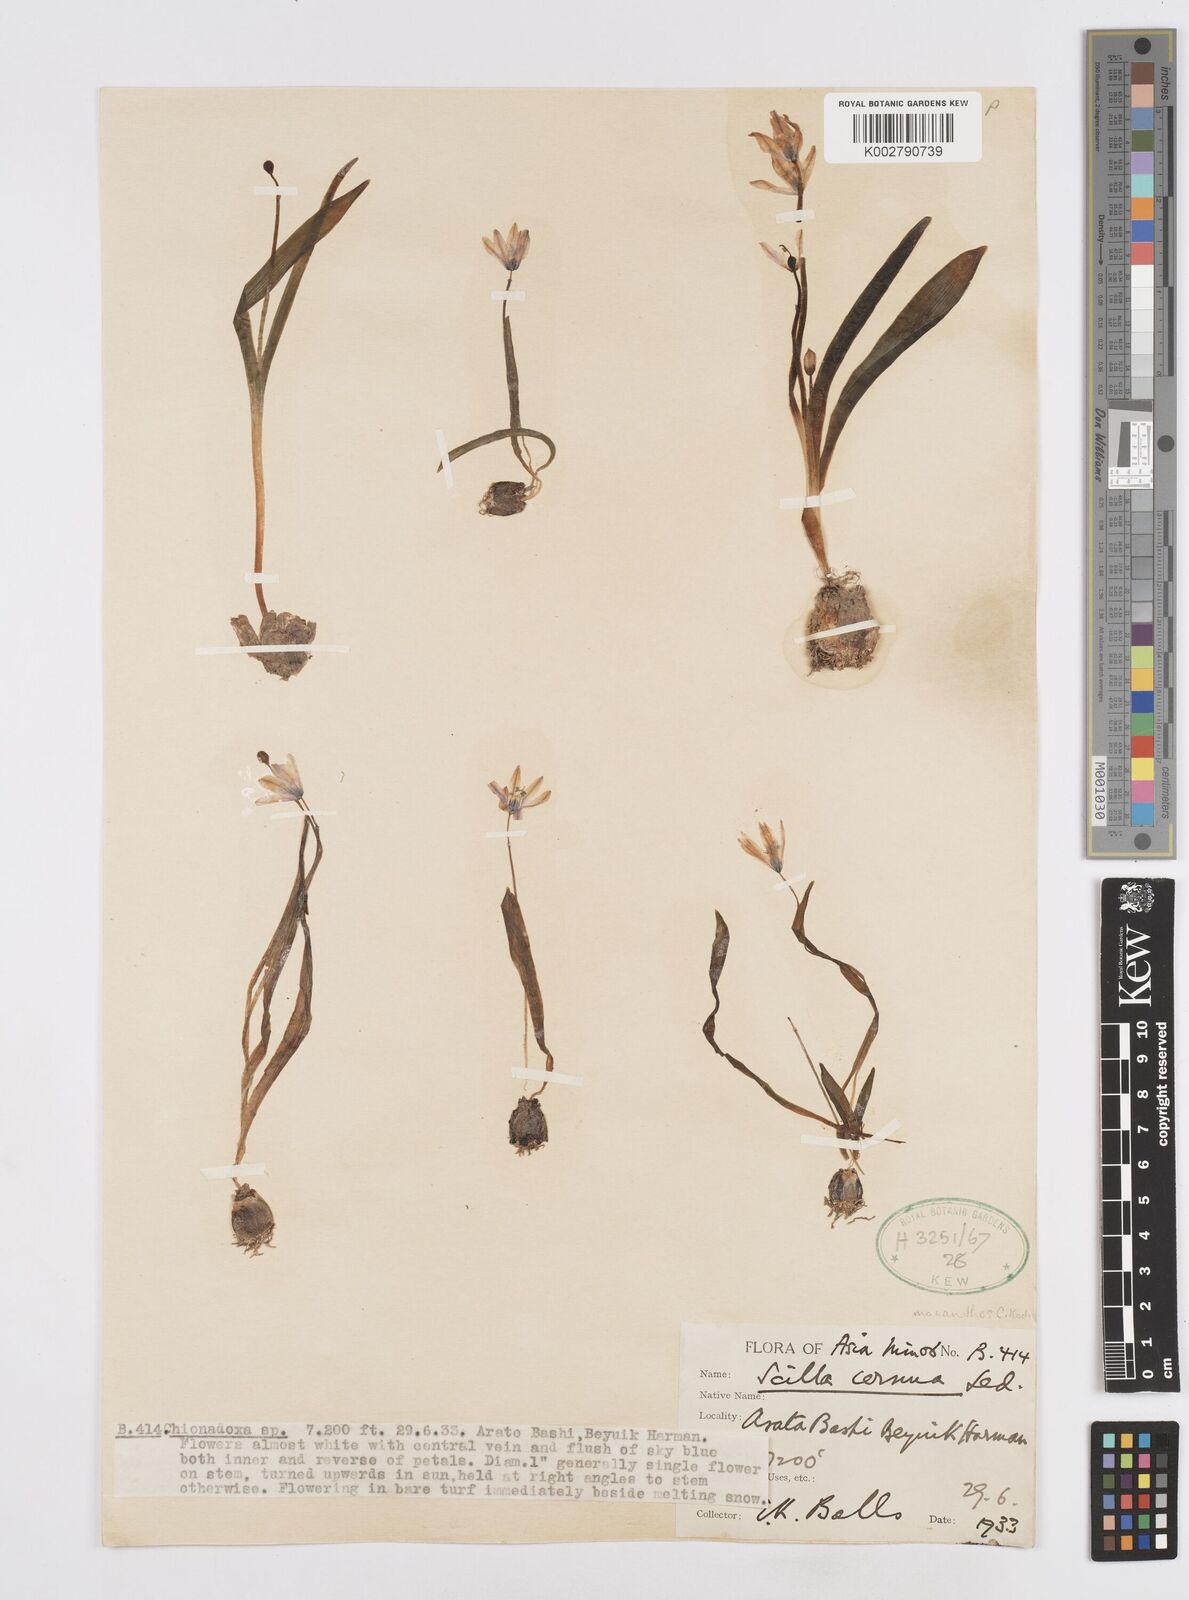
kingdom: Plantae
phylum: Tracheophyta
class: Liliopsida
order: Asparagales
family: Asparagaceae
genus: Scilla
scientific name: Scilla monanthos
